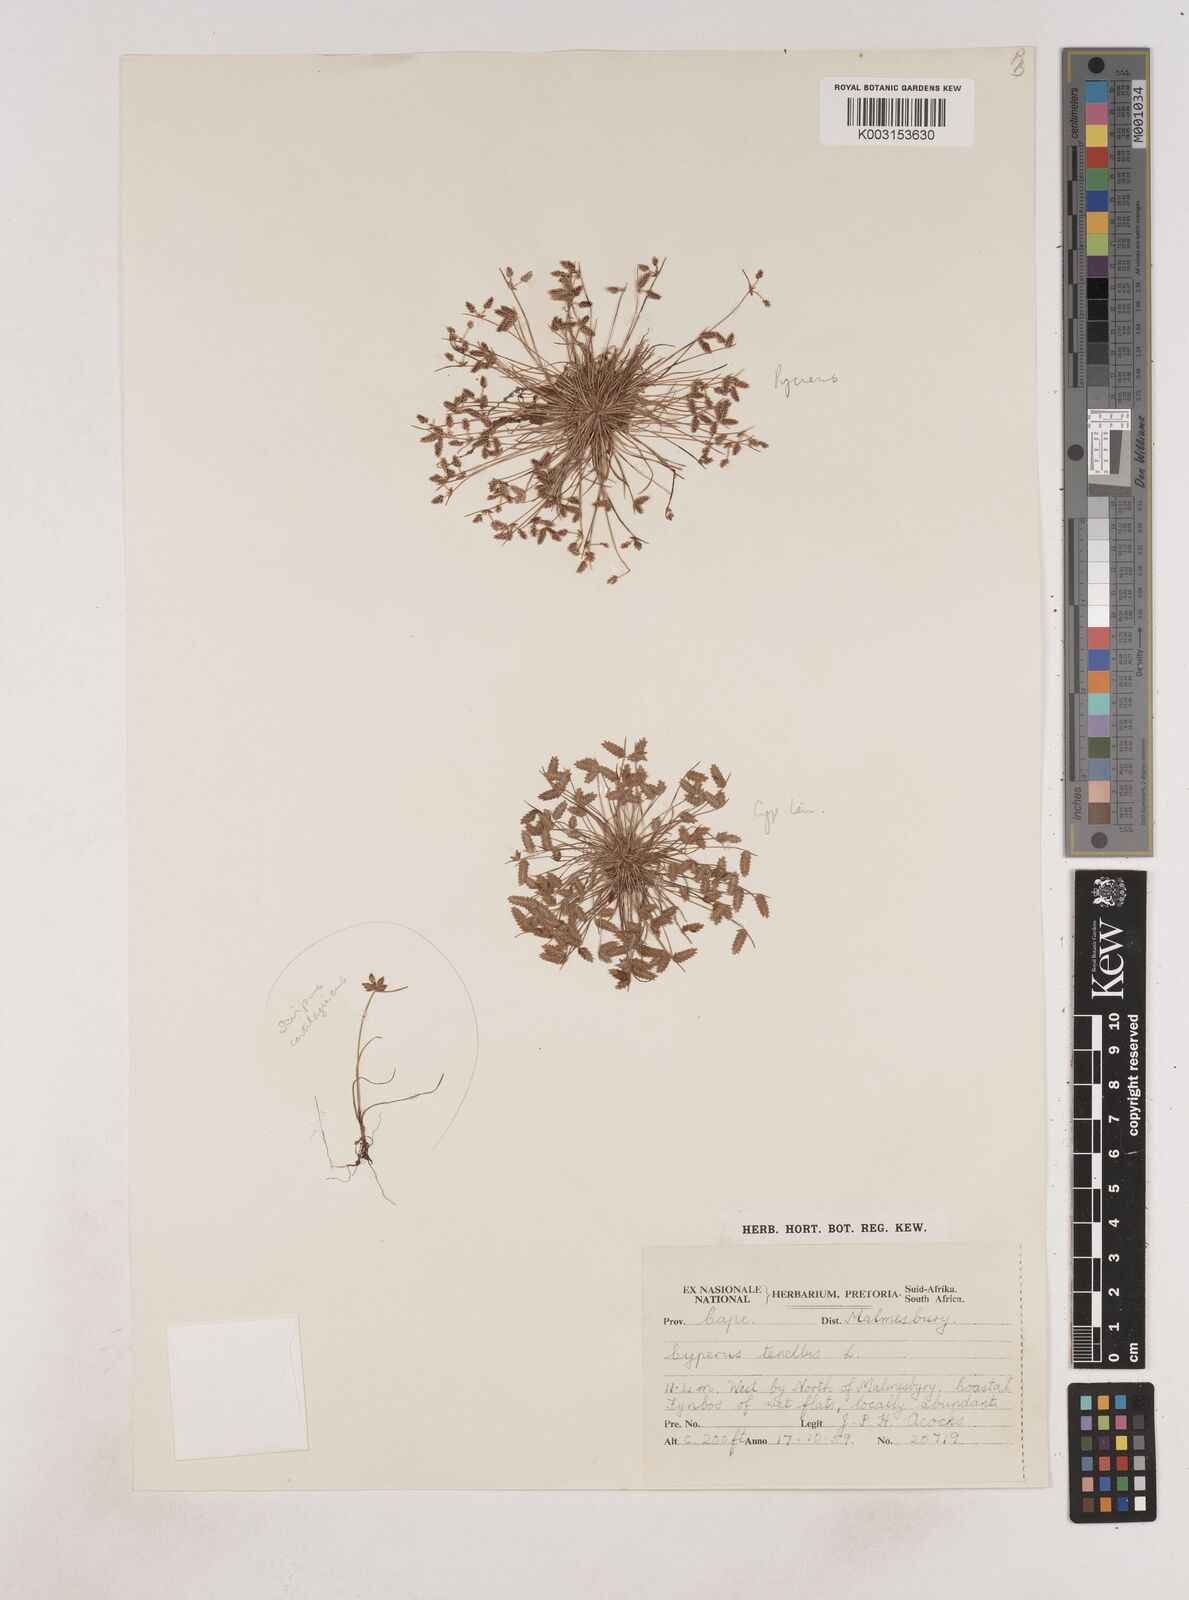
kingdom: Plantae
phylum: Tracheophyta
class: Liliopsida
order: Poales
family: Cyperaceae
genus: Isolepis
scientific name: Isolepis levynsiana
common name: Sedge
